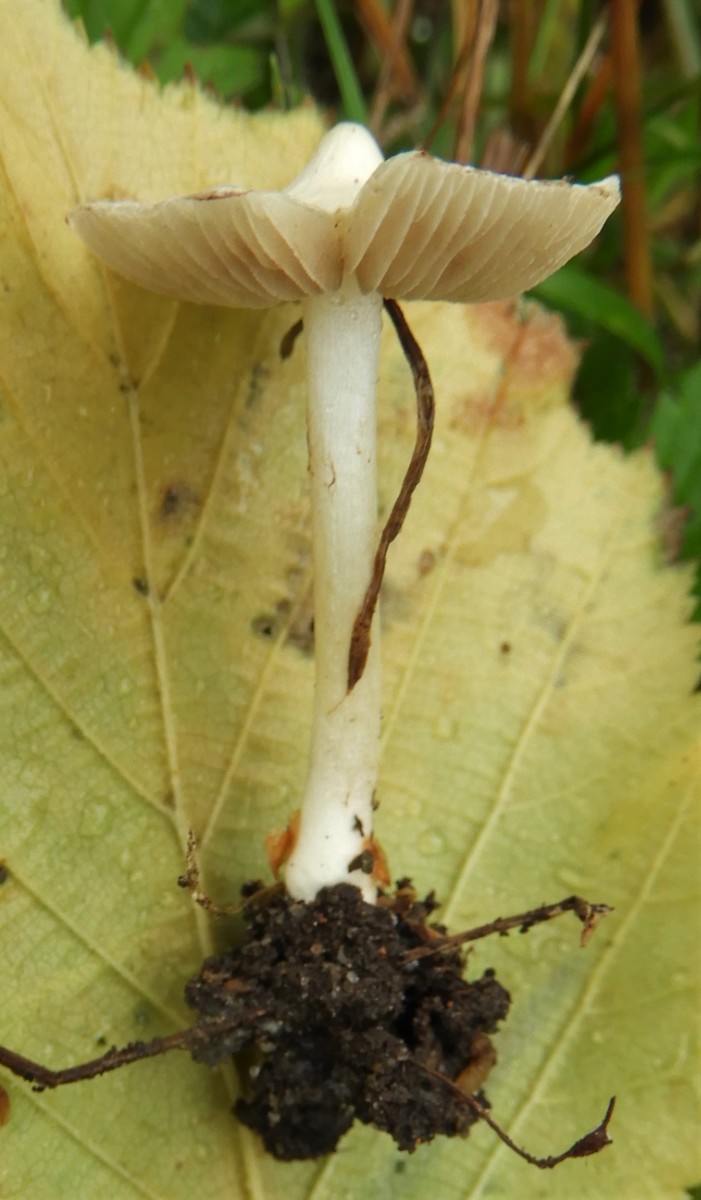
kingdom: Fungi
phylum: Basidiomycota
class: Agaricomycetes
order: Agaricales
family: Inocybaceae
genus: Inocybe
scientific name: Inocybe
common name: almindelig trævlhat
